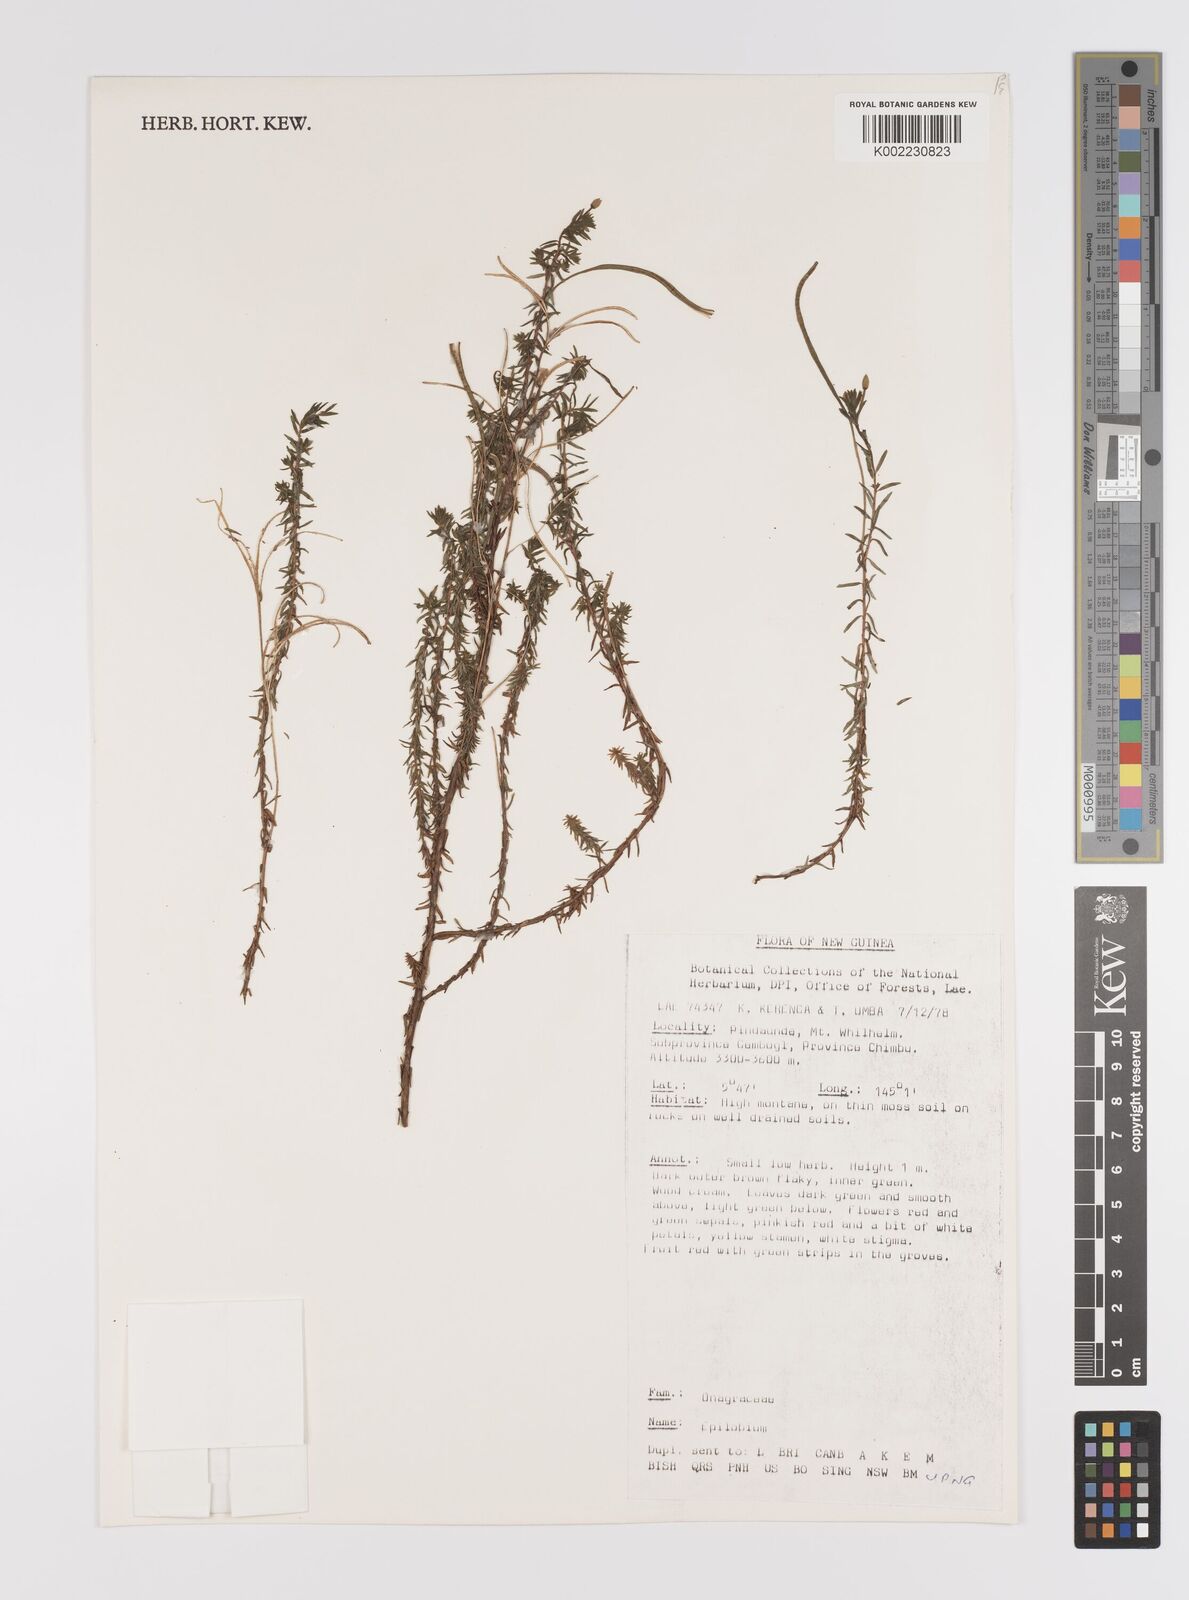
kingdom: Plantae
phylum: Tracheophyta
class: Magnoliopsida
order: Myrtales
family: Onagraceae
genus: Epilobium
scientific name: Epilobium
